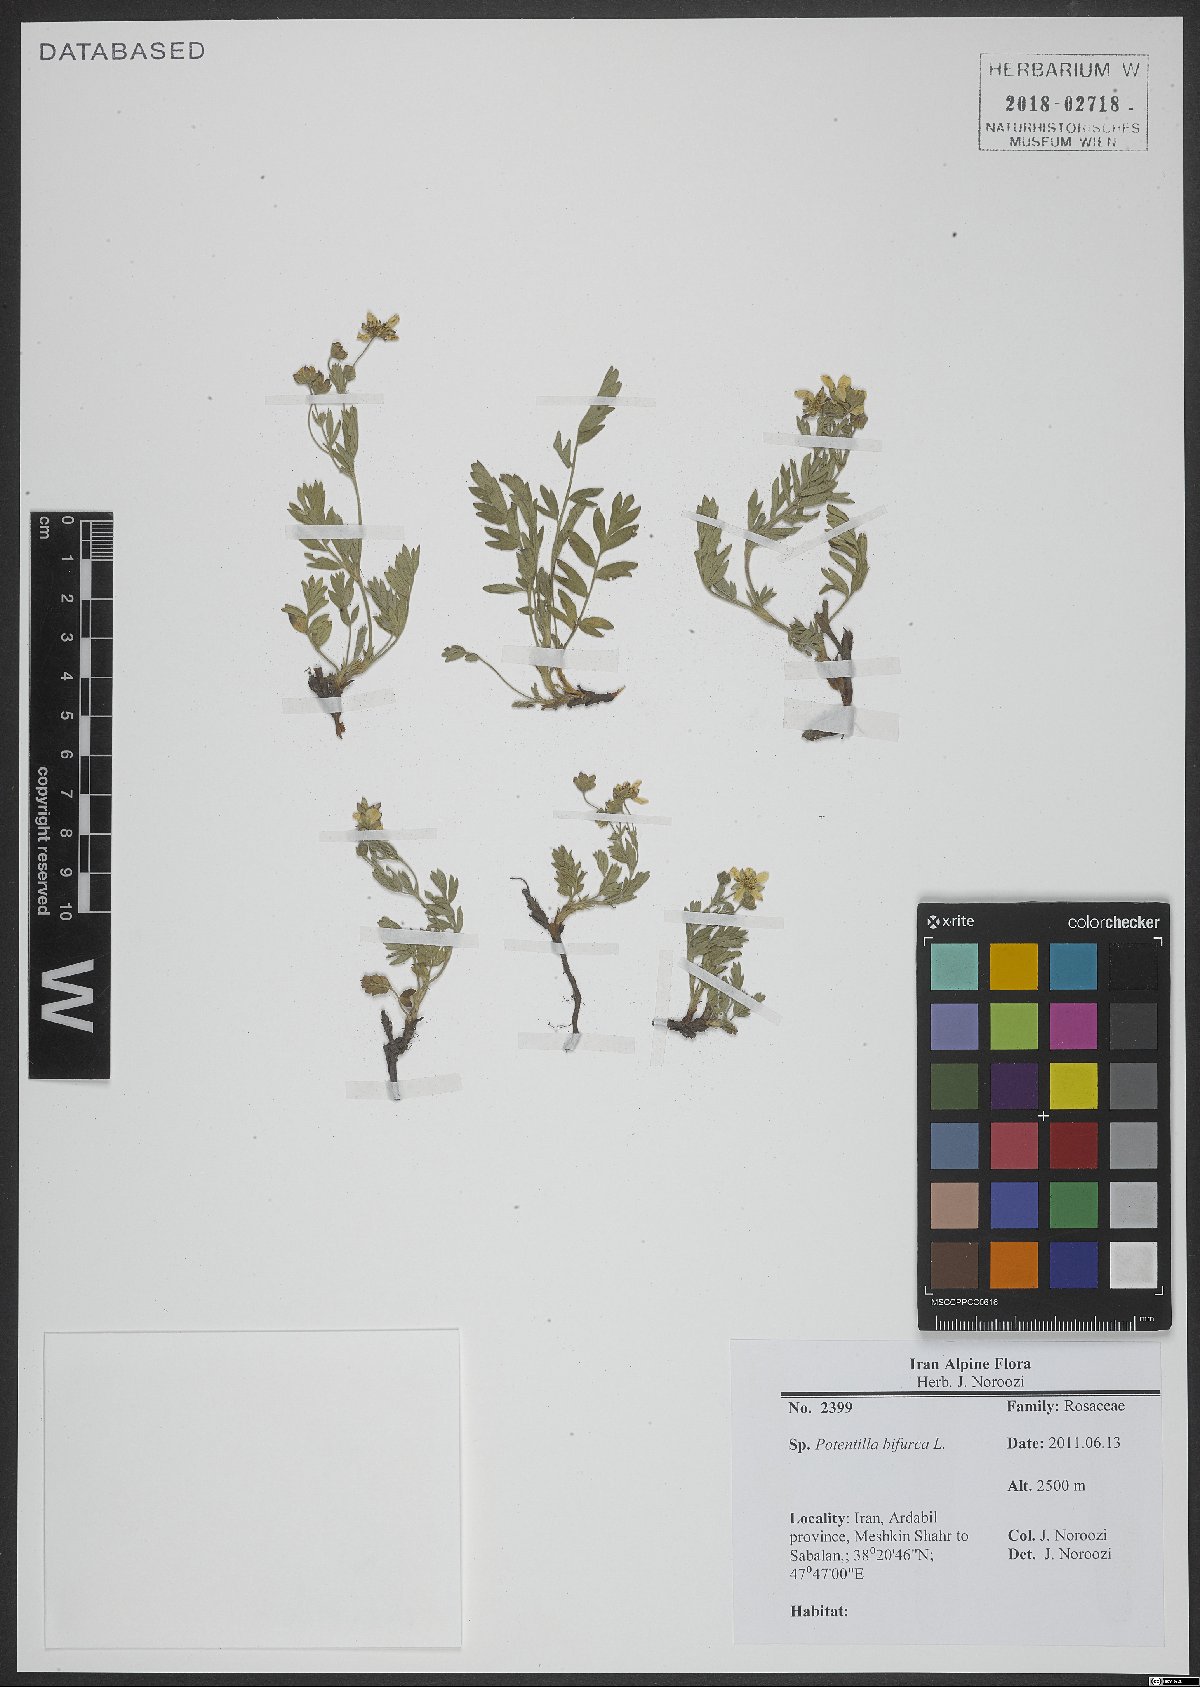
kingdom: Plantae
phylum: Tracheophyta
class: Magnoliopsida
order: Rosales
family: Rosaceae
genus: Sibbaldianthe
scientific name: Sibbaldianthe bifurca
